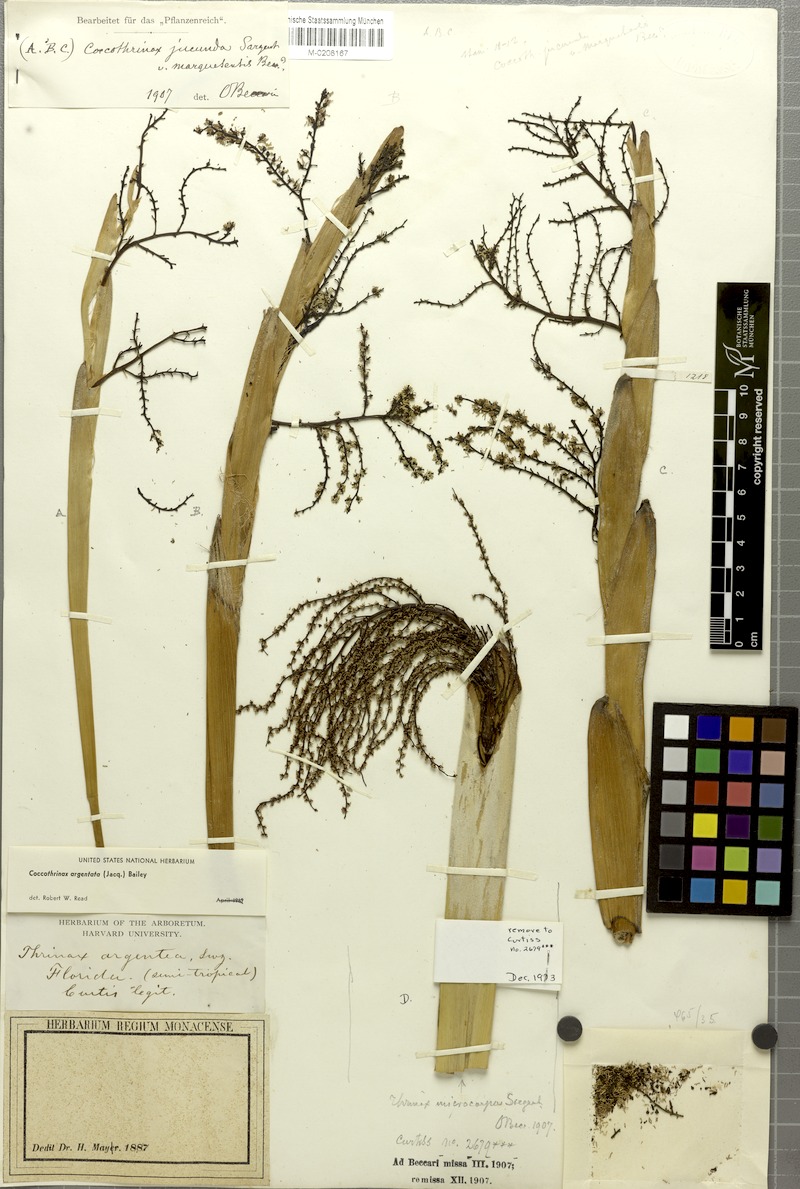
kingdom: Plantae
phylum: Tracheophyta
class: Liliopsida
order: Arecales
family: Arecaceae
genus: Coccothrinax
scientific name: Coccothrinax argentata
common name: Florida silver palm
